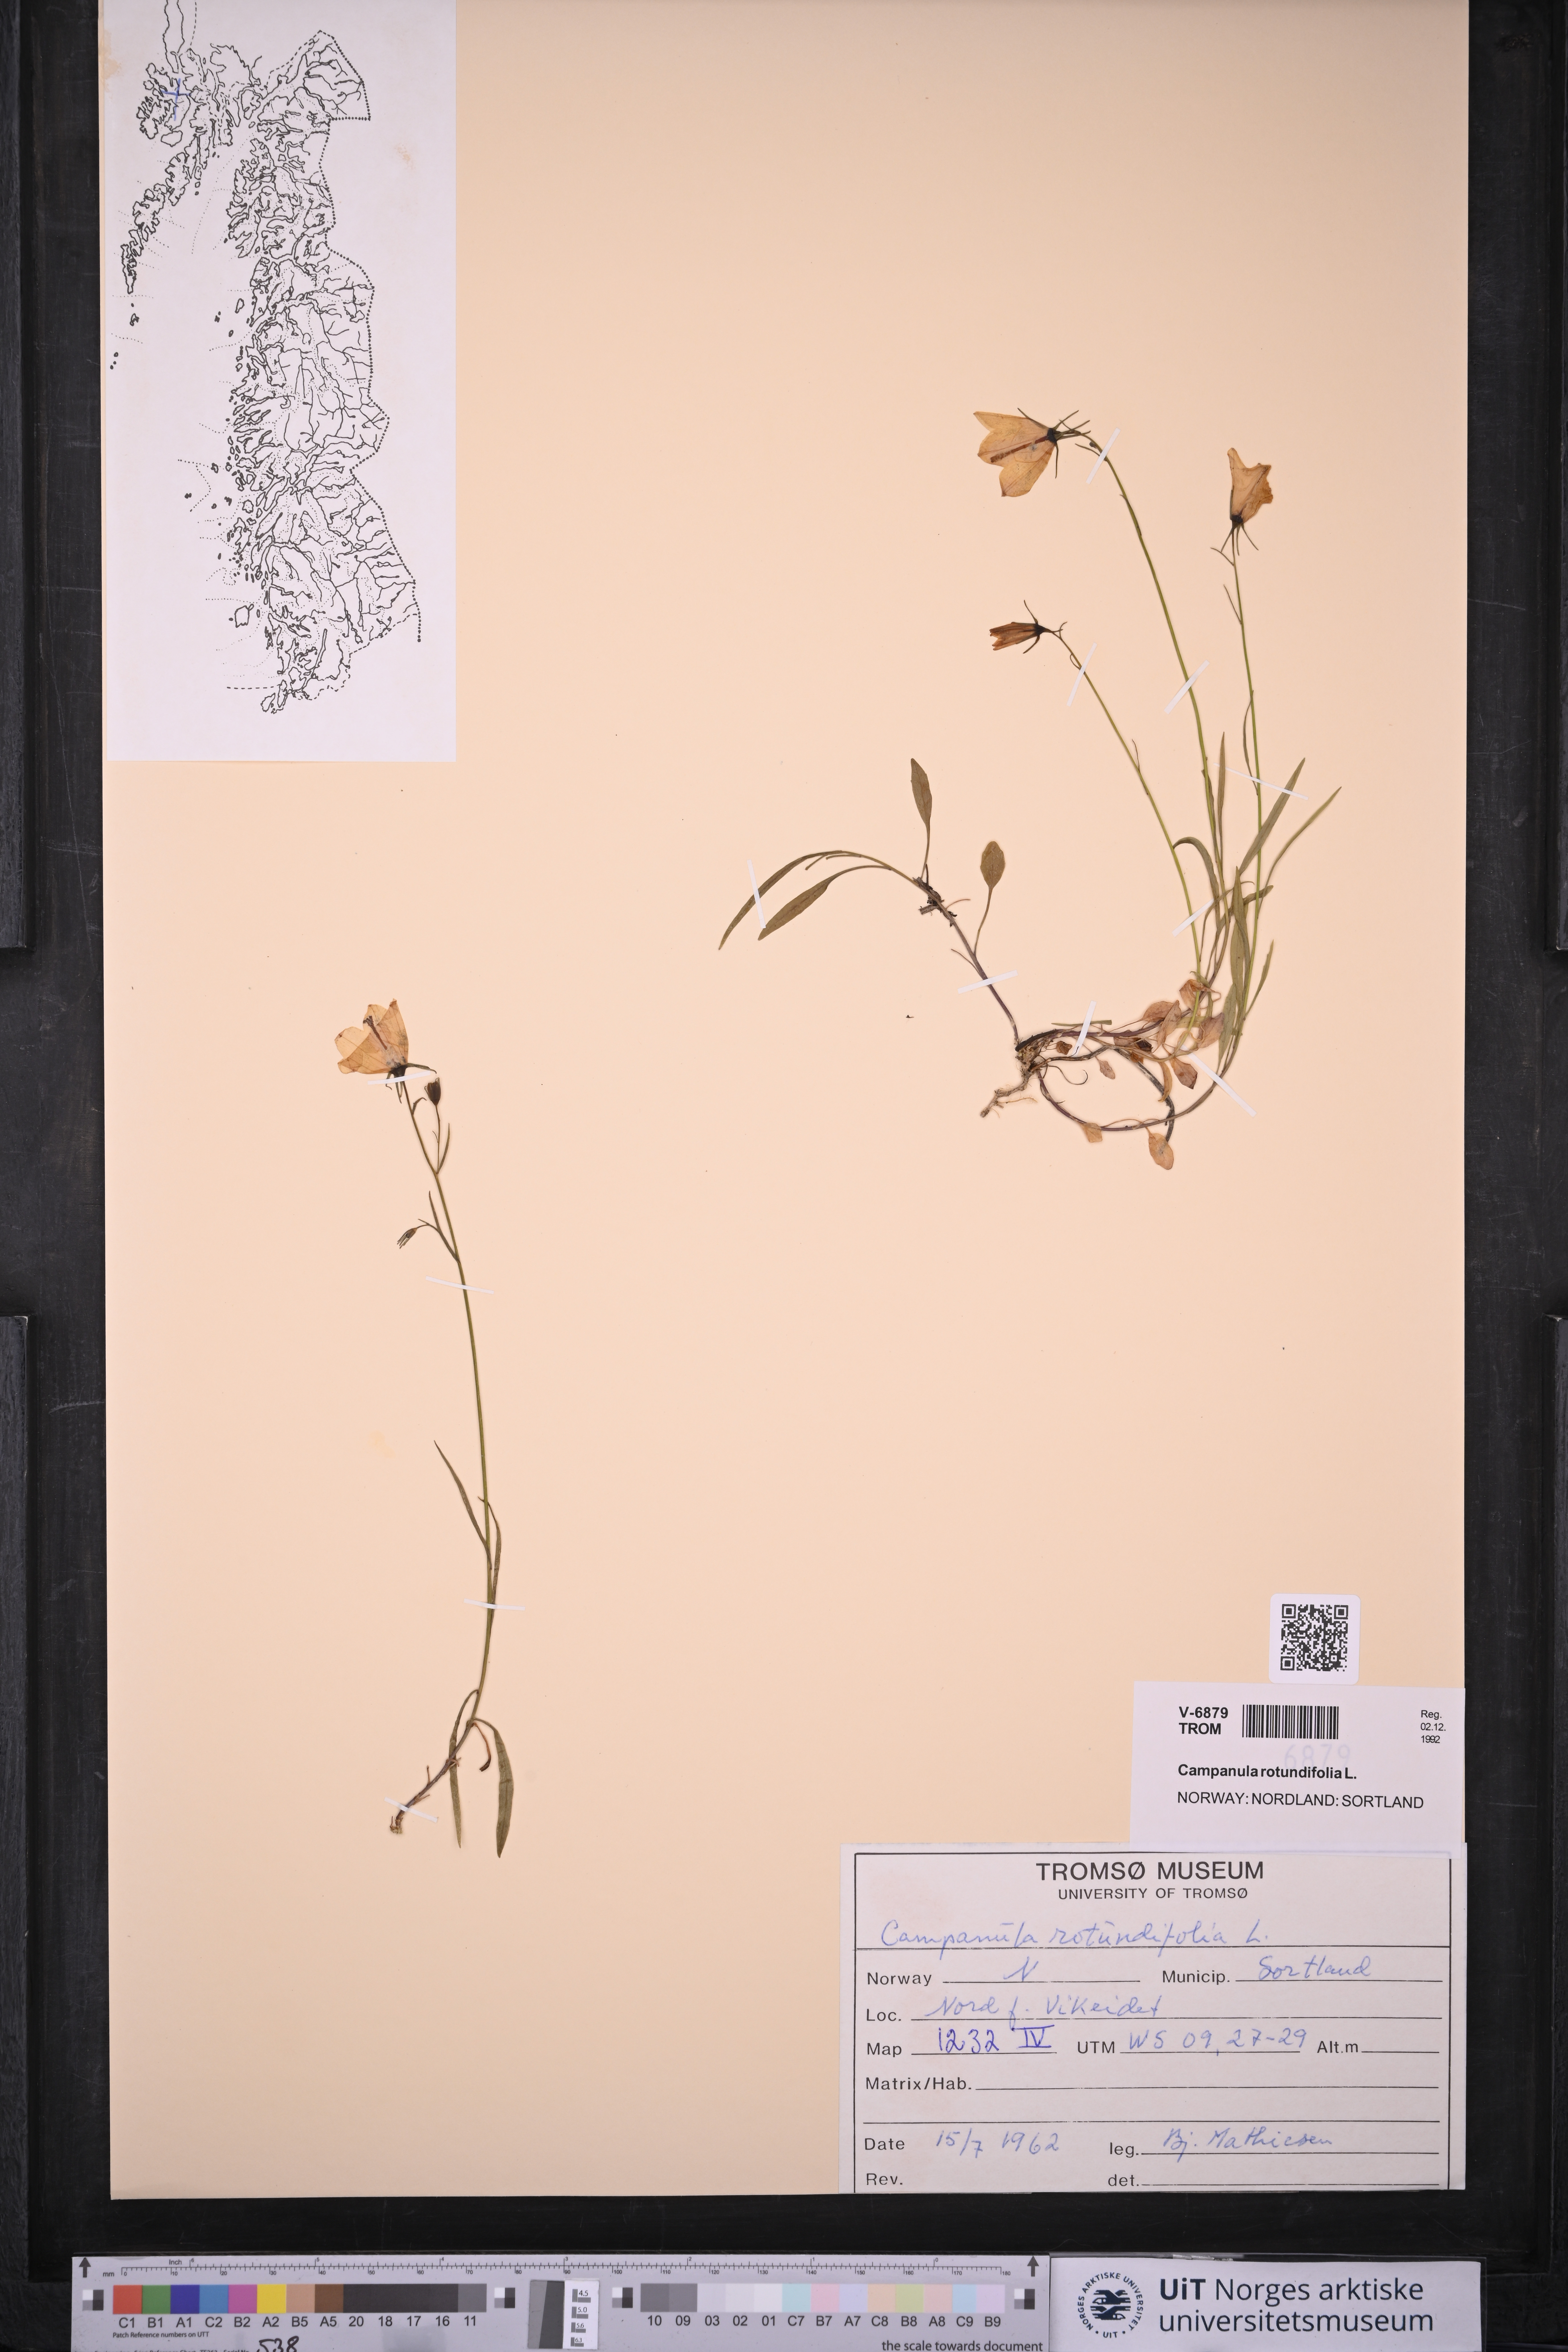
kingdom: Plantae
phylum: Tracheophyta
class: Magnoliopsida
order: Asterales
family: Campanulaceae
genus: Campanula
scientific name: Campanula rotundifolia
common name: Harebell
